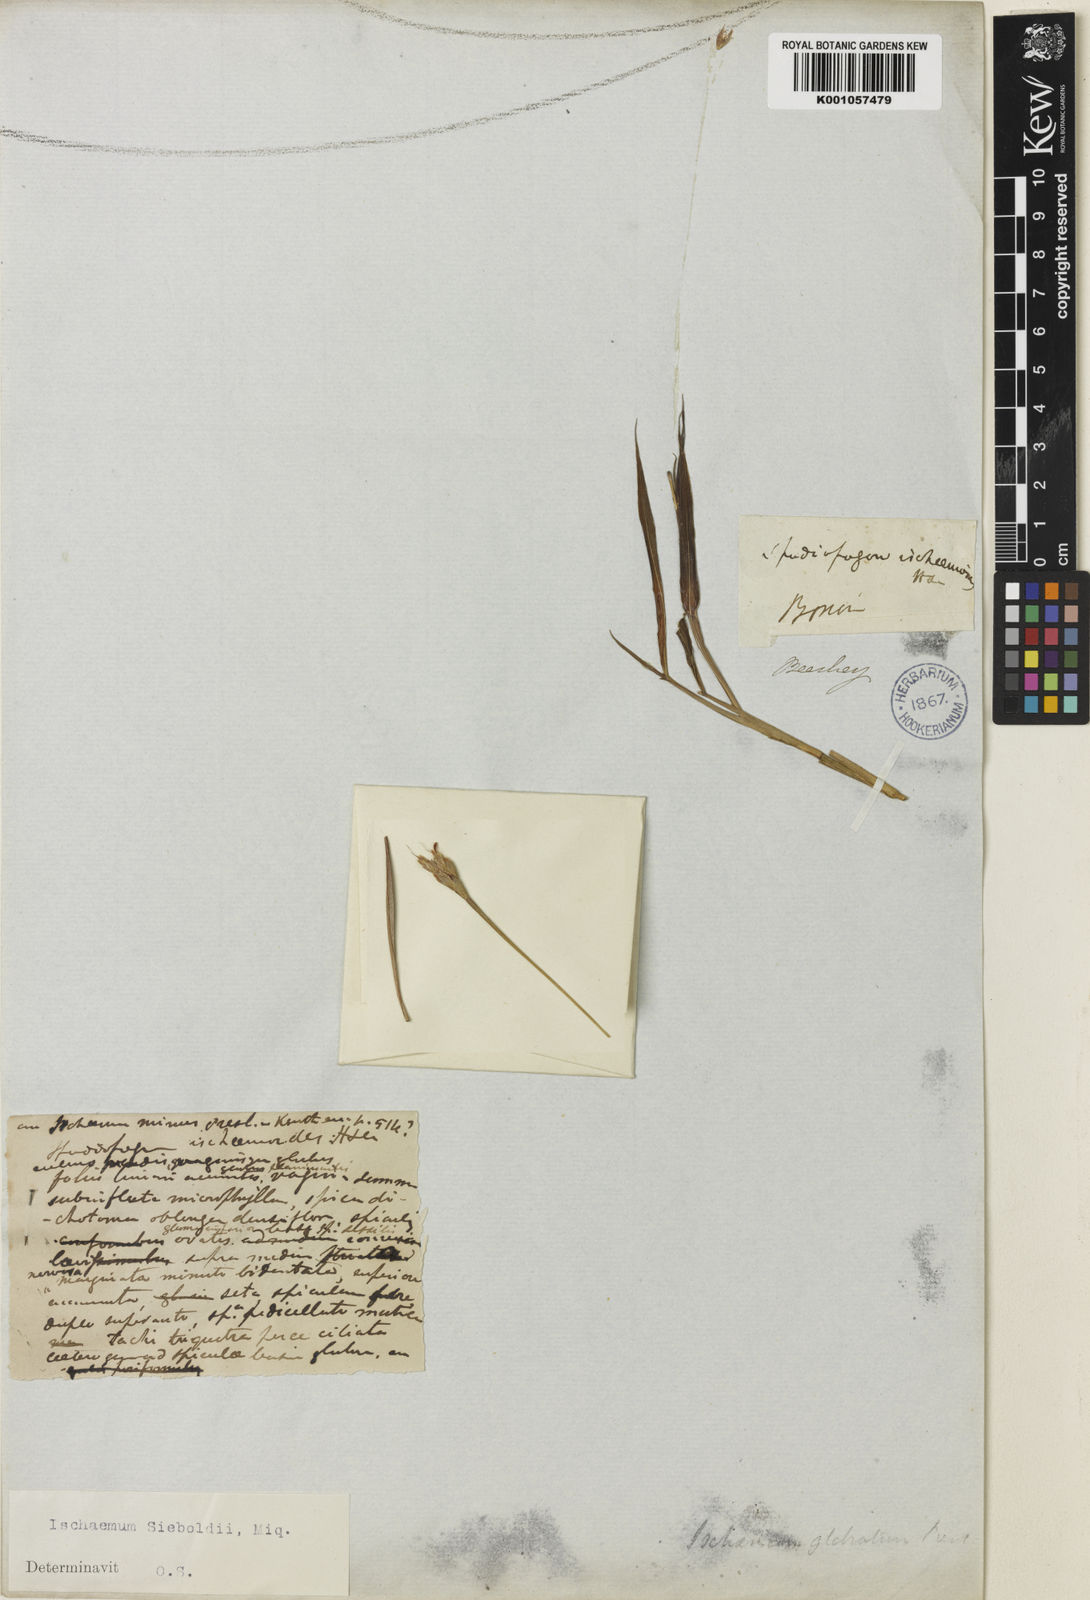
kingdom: Plantae
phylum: Tracheophyta
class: Liliopsida
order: Poales
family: Poaceae
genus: Ischaemum
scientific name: Ischaemum aristatum
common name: Toco grass
